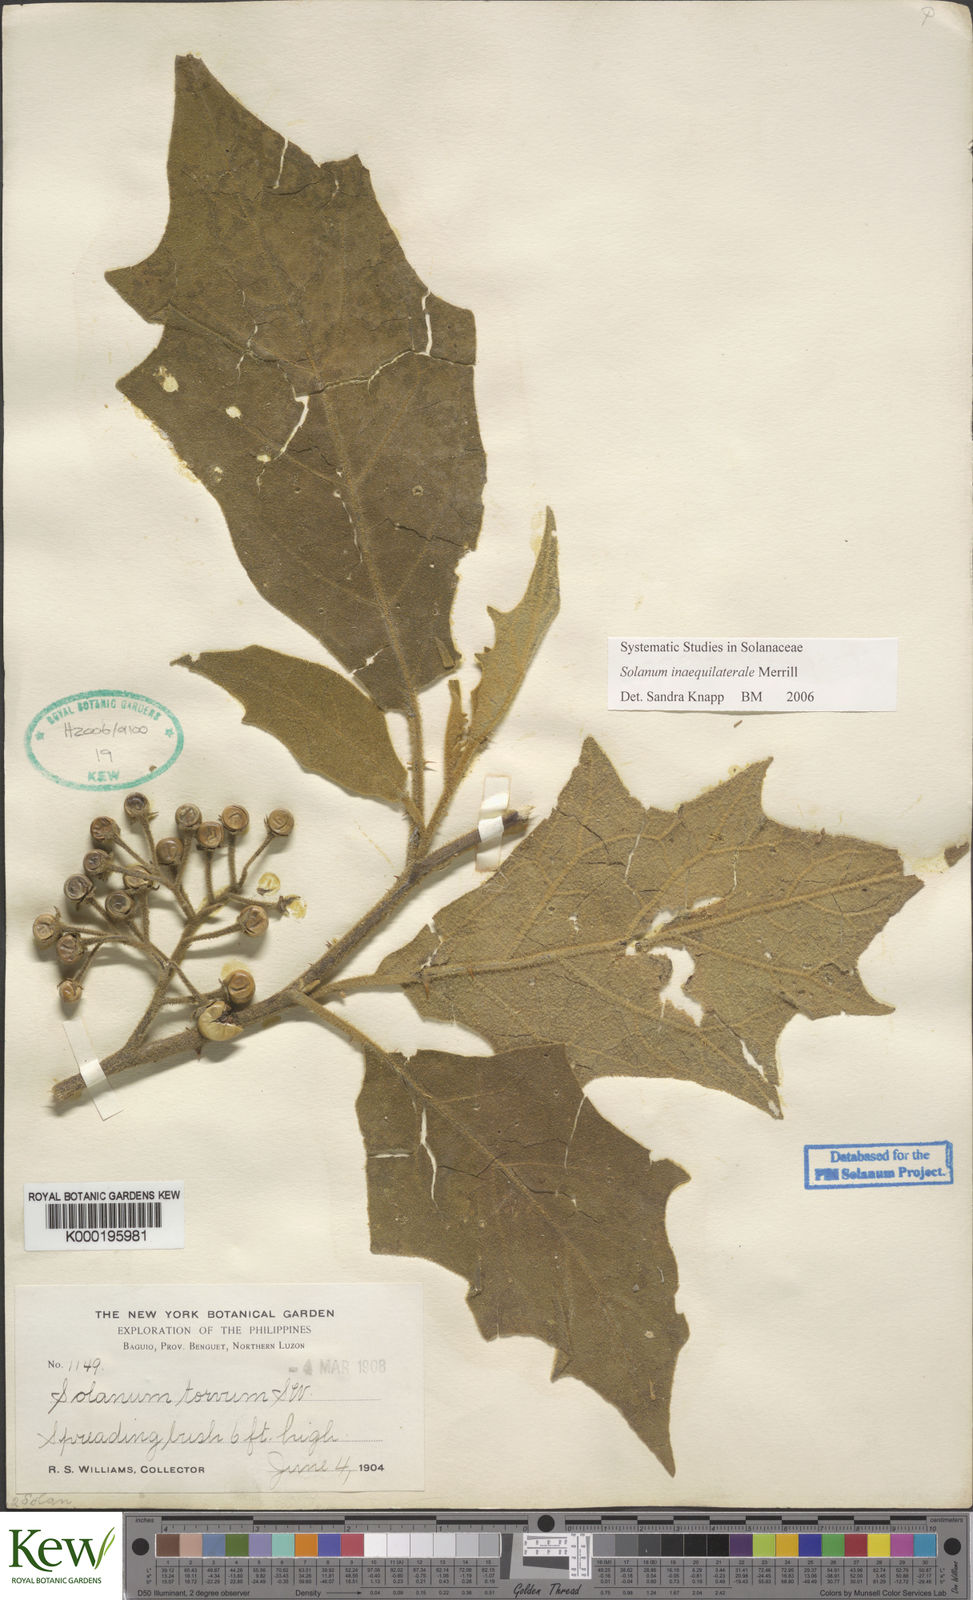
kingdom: Plantae
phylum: Tracheophyta
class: Magnoliopsida
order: Solanales
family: Solanaceae
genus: Solanum
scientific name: Solanum torvoideum
